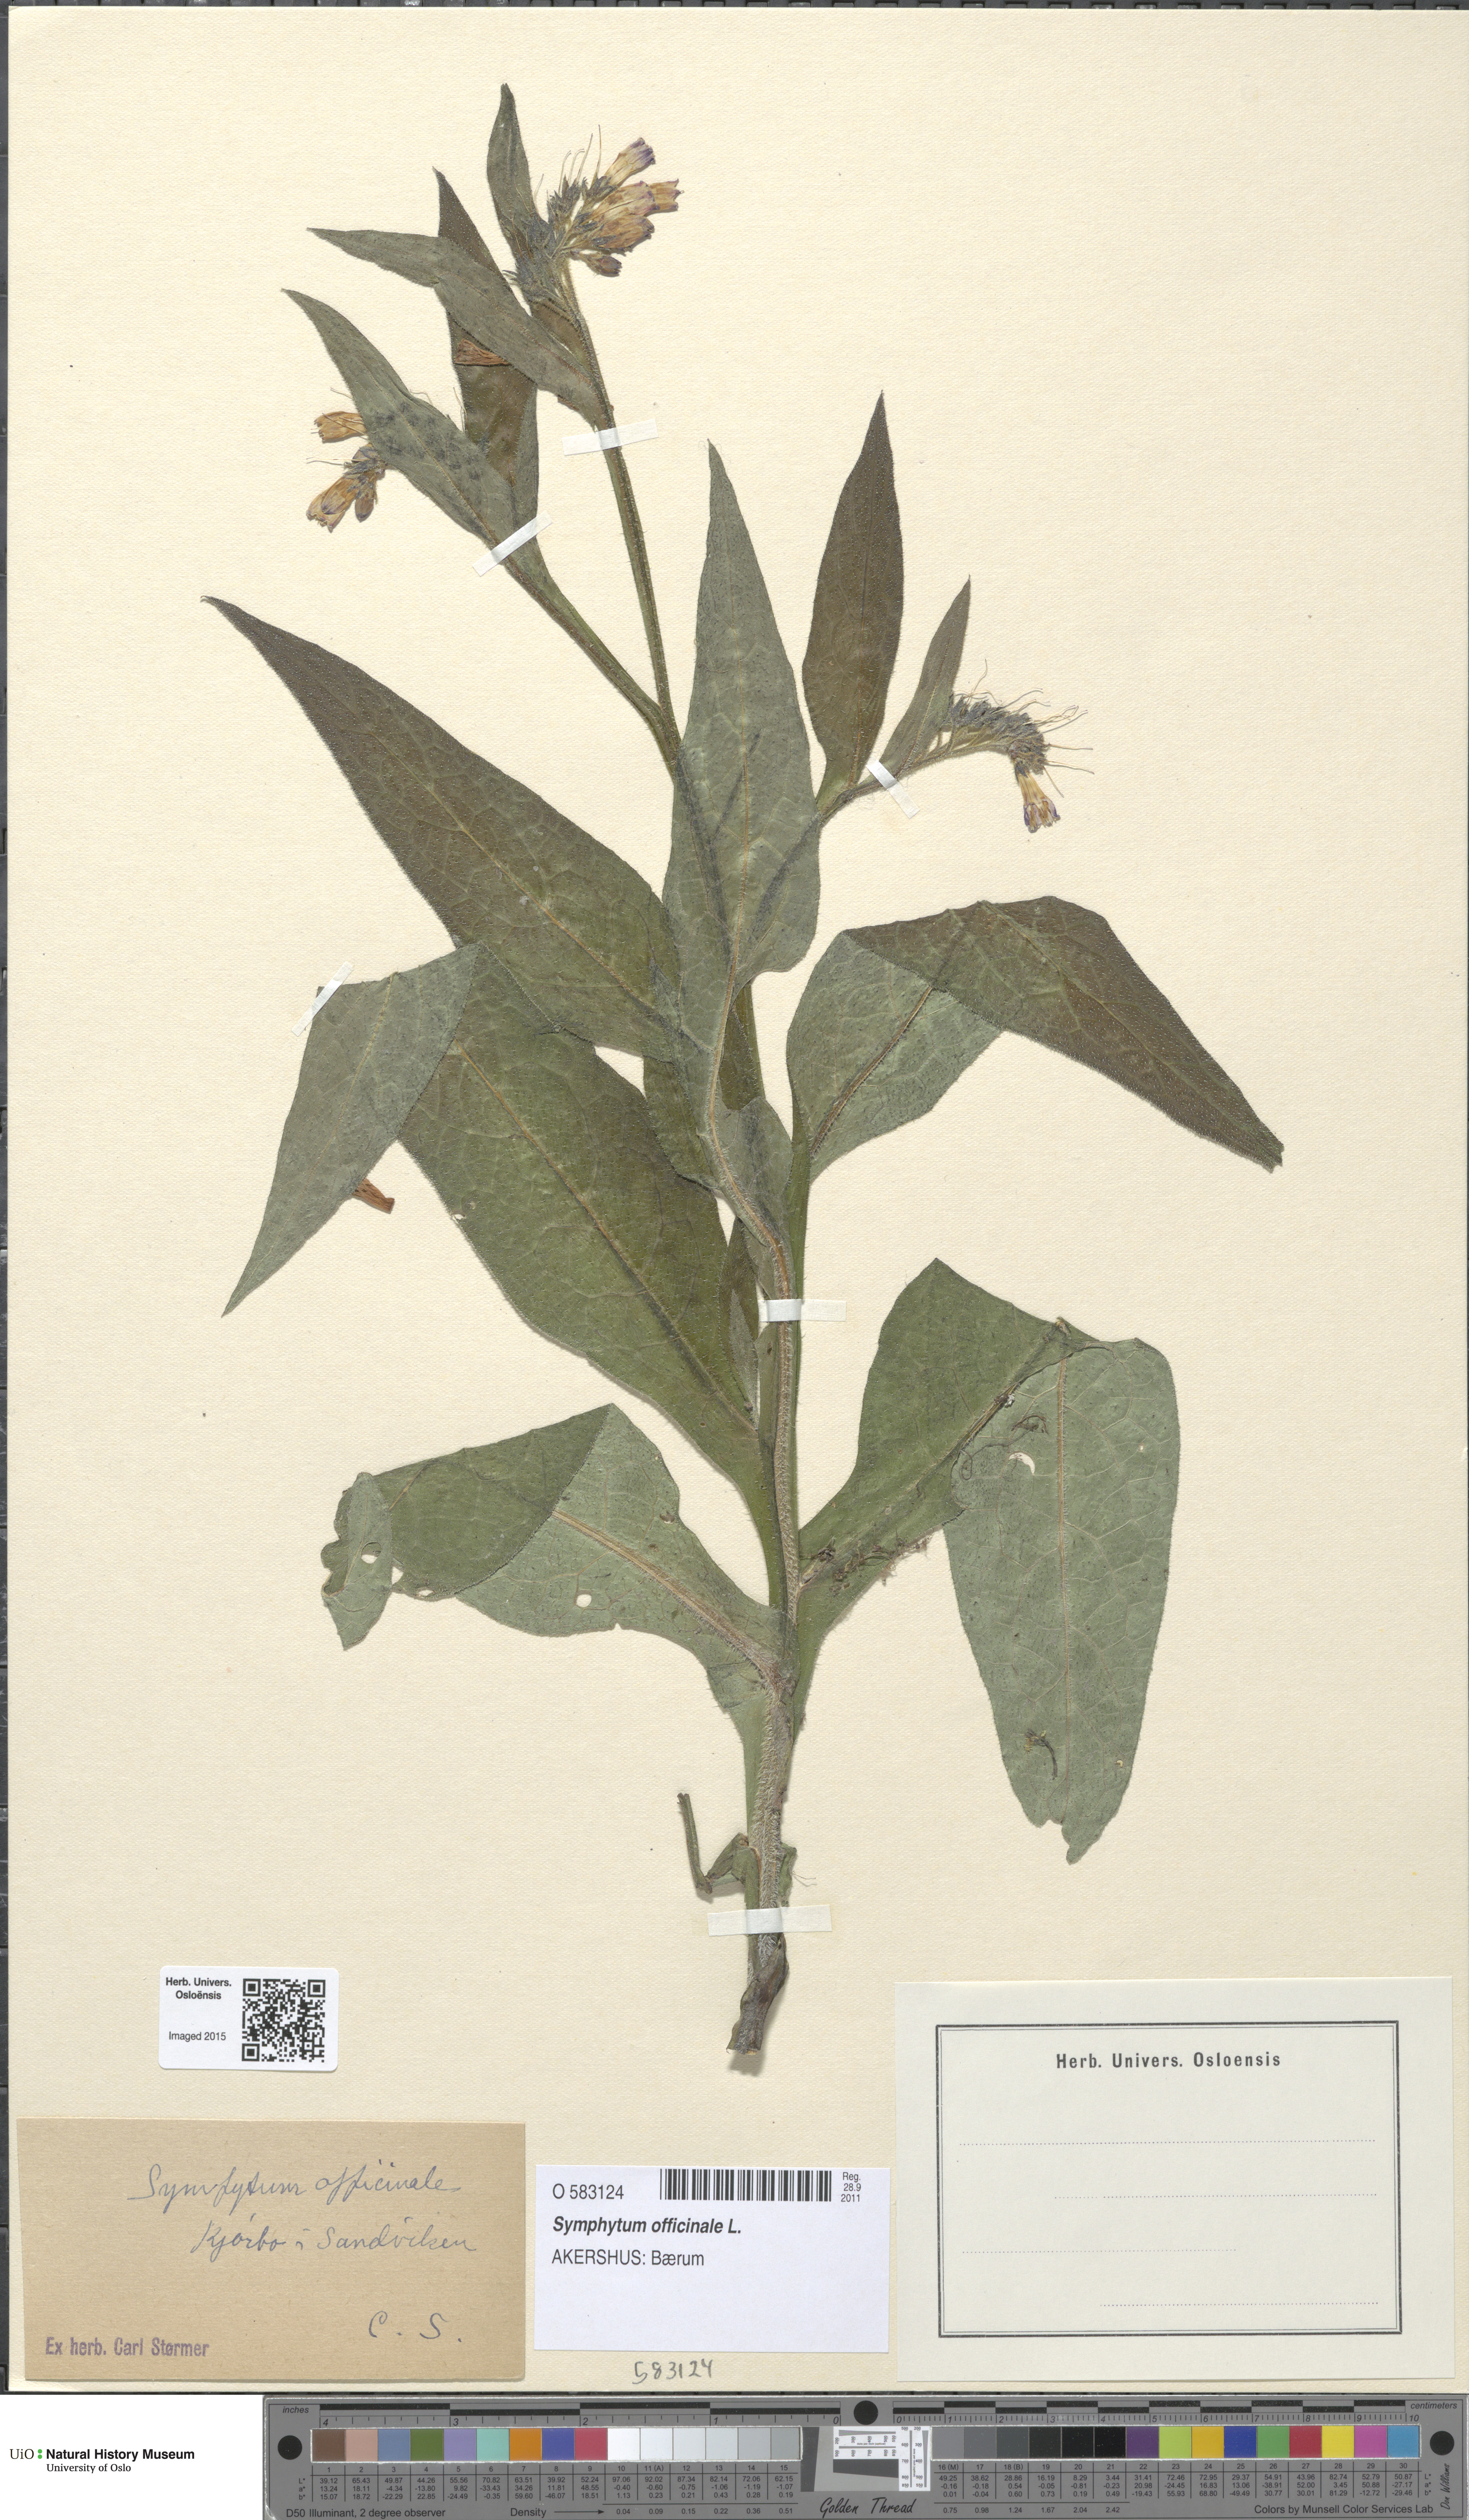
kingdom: Plantae
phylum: Tracheophyta
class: Magnoliopsida
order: Boraginales
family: Boraginaceae
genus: Symphytum
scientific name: Symphytum officinale
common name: Common comfrey
